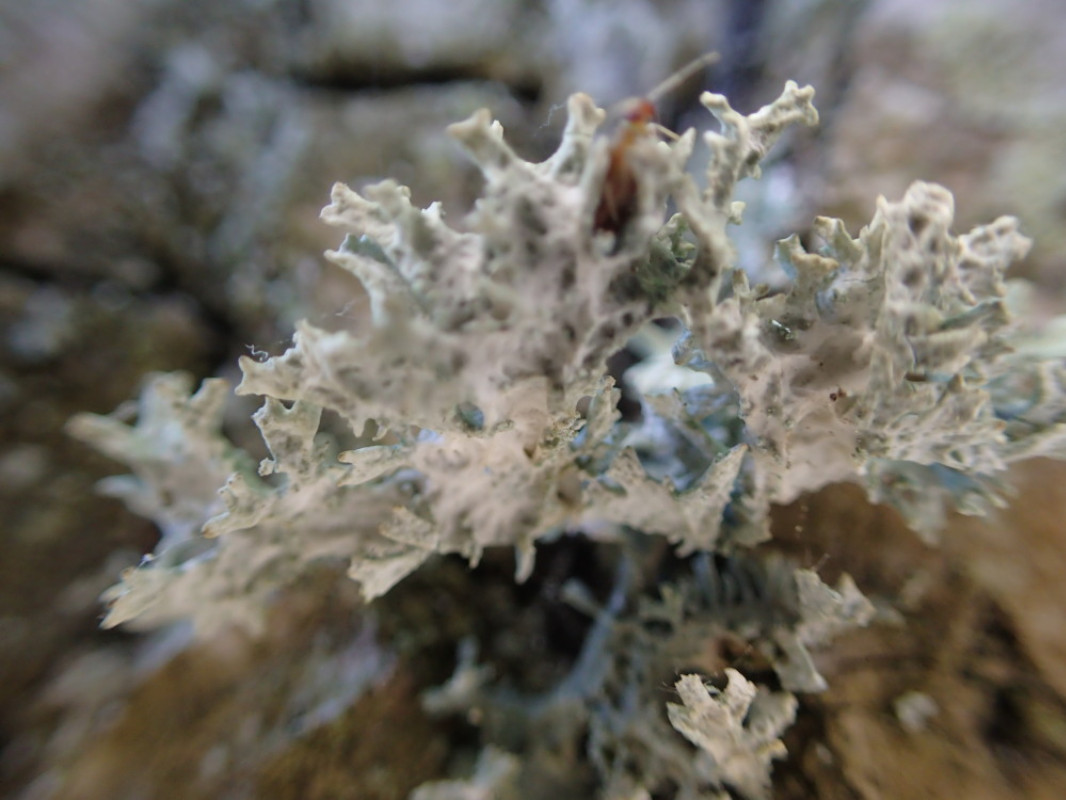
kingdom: Fungi
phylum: Ascomycota
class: Lecanoromycetes
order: Lecanorales
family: Parmeliaceae
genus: Evernia
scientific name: Evernia prunastri
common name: almindelig slåenlav
